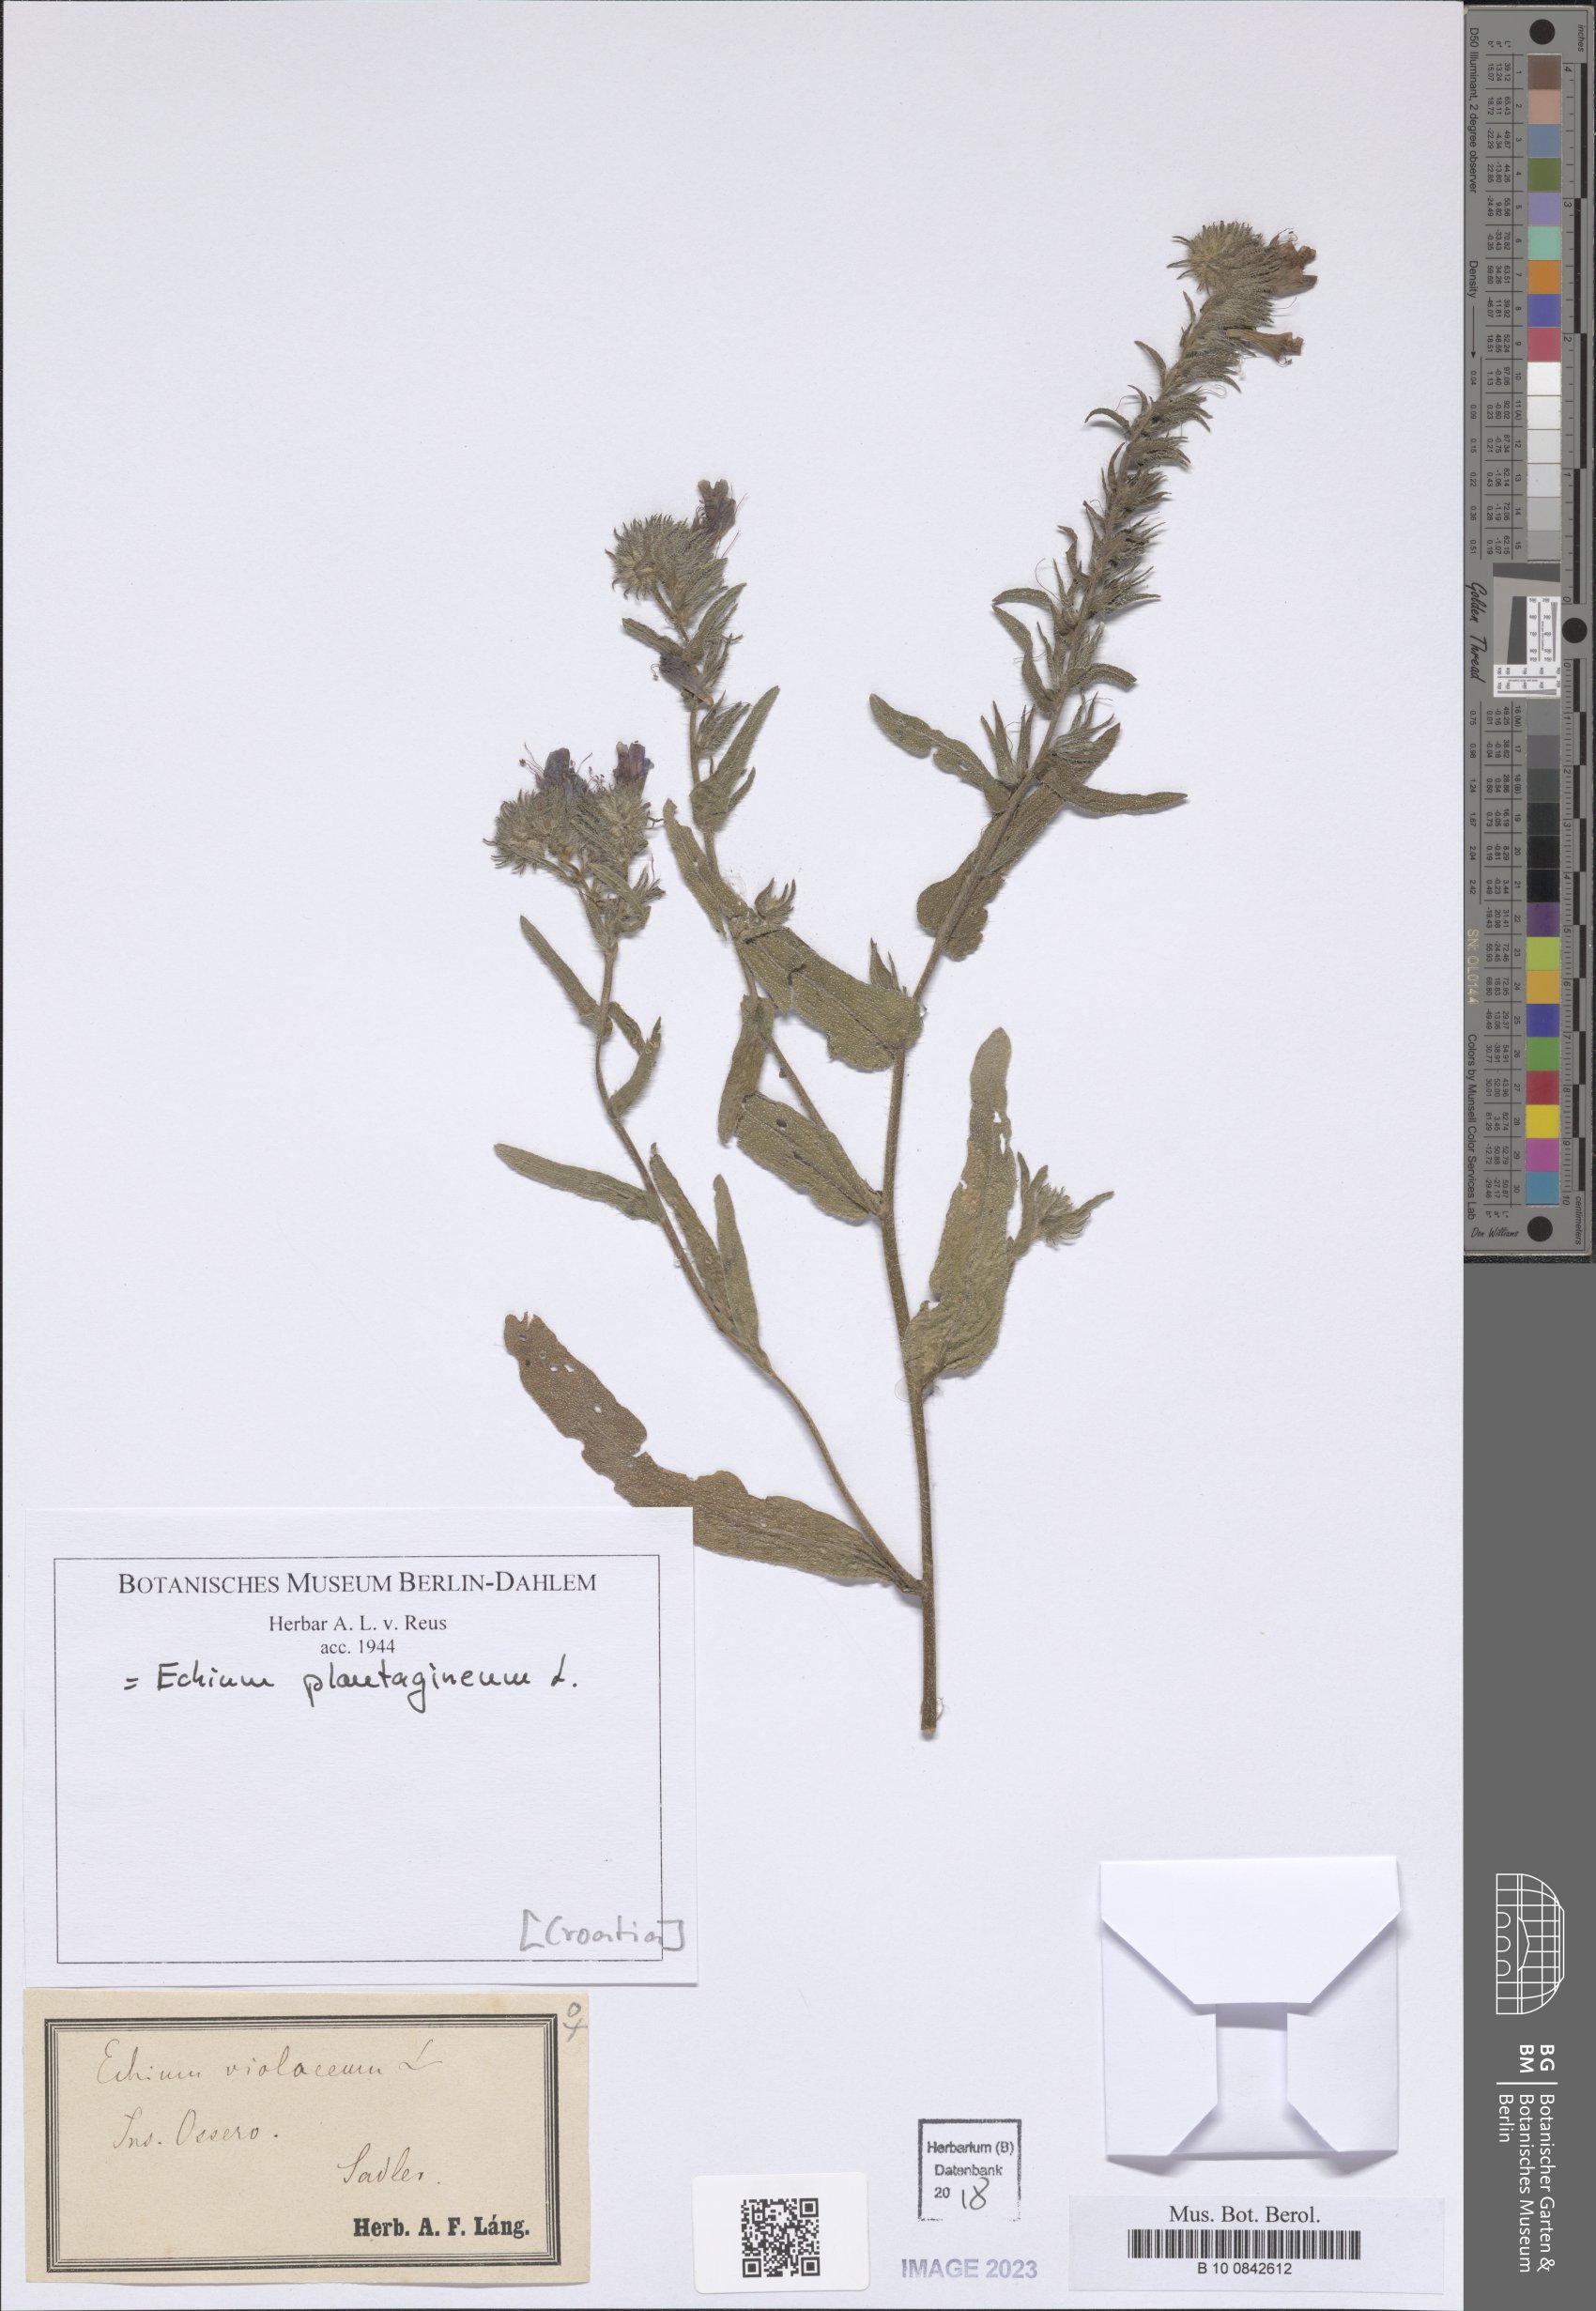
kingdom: Plantae
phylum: Tracheophyta
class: Magnoliopsida
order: Boraginales
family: Boraginaceae
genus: Echium
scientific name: Echium plantagineum
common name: Purple viper's-bugloss
